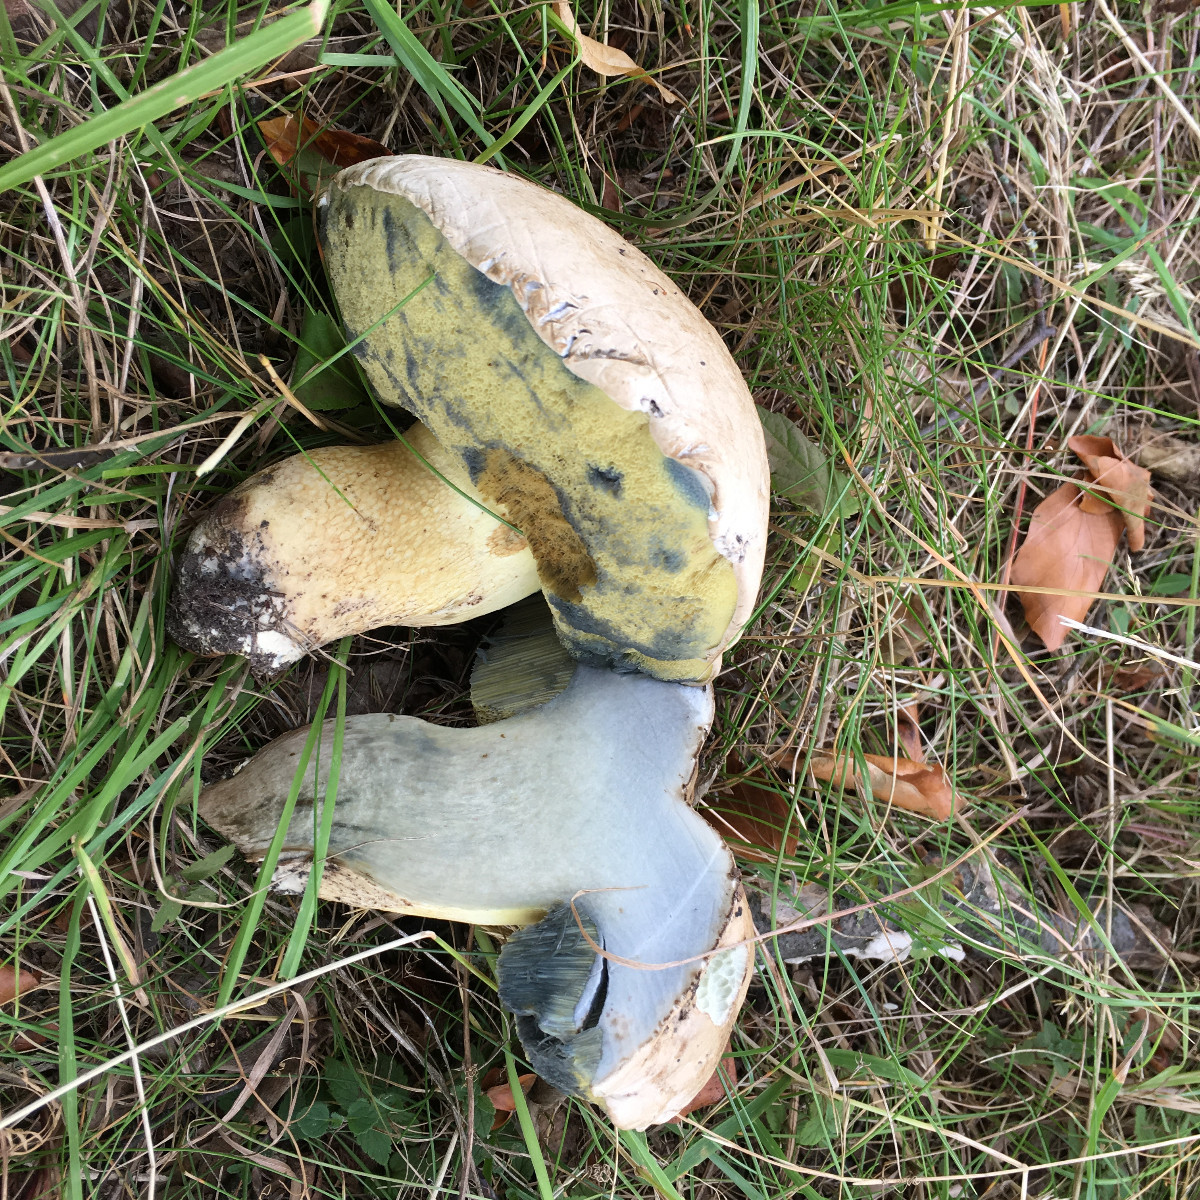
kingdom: Fungi
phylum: Basidiomycota
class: Agaricomycetes
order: Boletales
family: Boletaceae
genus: Caloboletus
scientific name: Caloboletus radicans
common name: rod-rørhat
